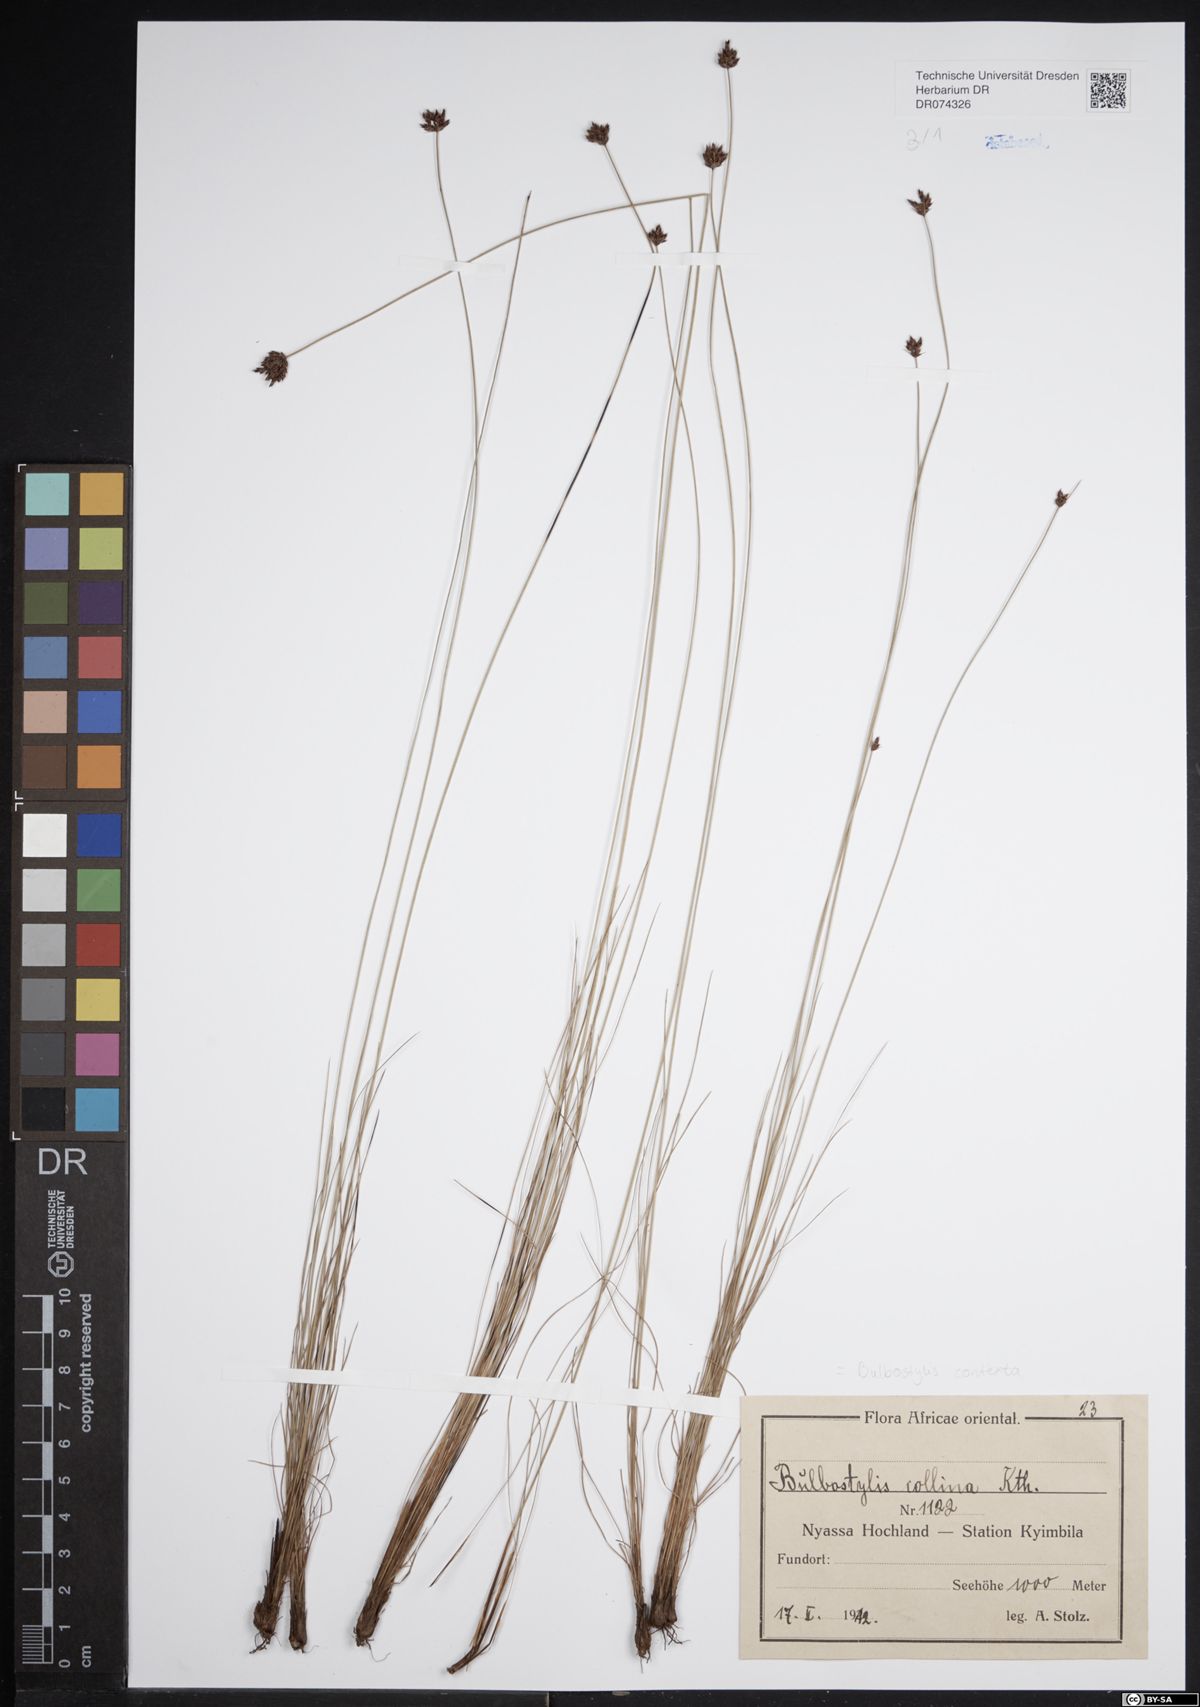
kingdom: Plantae
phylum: Tracheophyta
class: Liliopsida
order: Poales
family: Cyperaceae
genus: Bulbostylis
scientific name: Bulbostylis contexta
